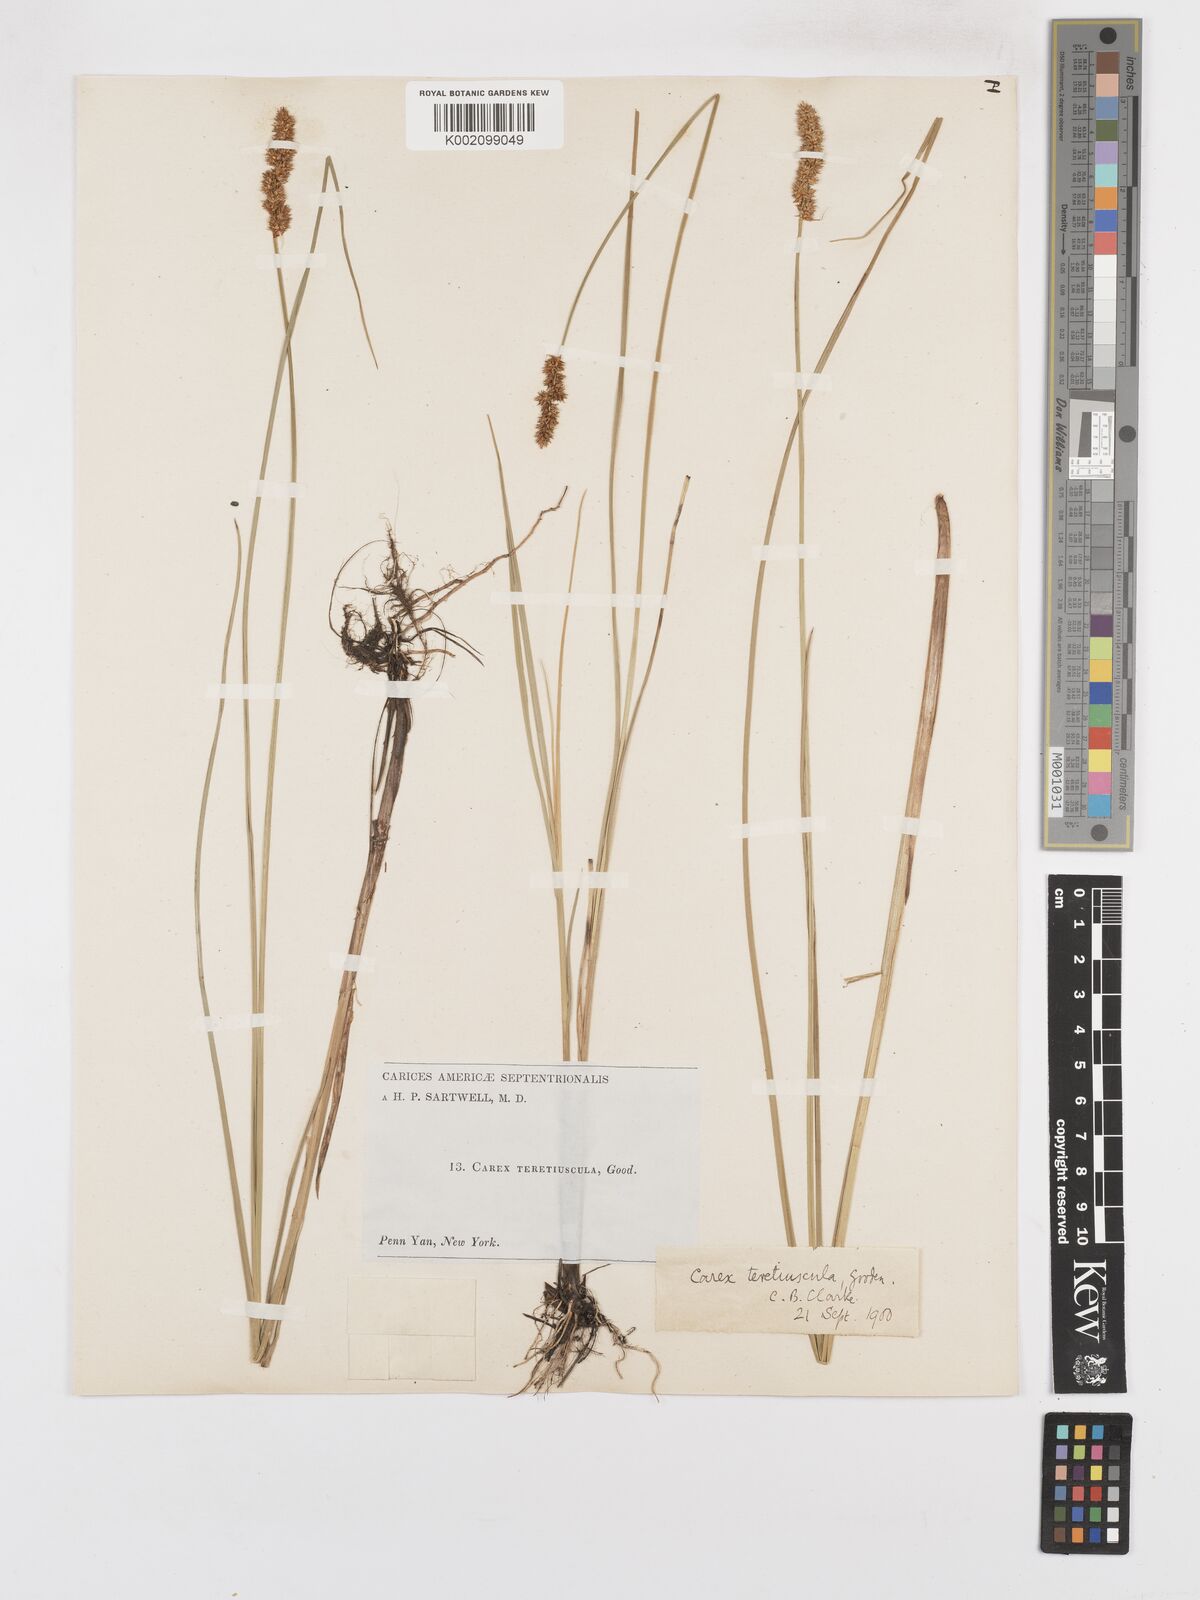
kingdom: Plantae
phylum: Tracheophyta
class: Liliopsida
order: Poales
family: Cyperaceae
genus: Carex
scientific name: Carex diandra
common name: Lesser tussock-sedge
